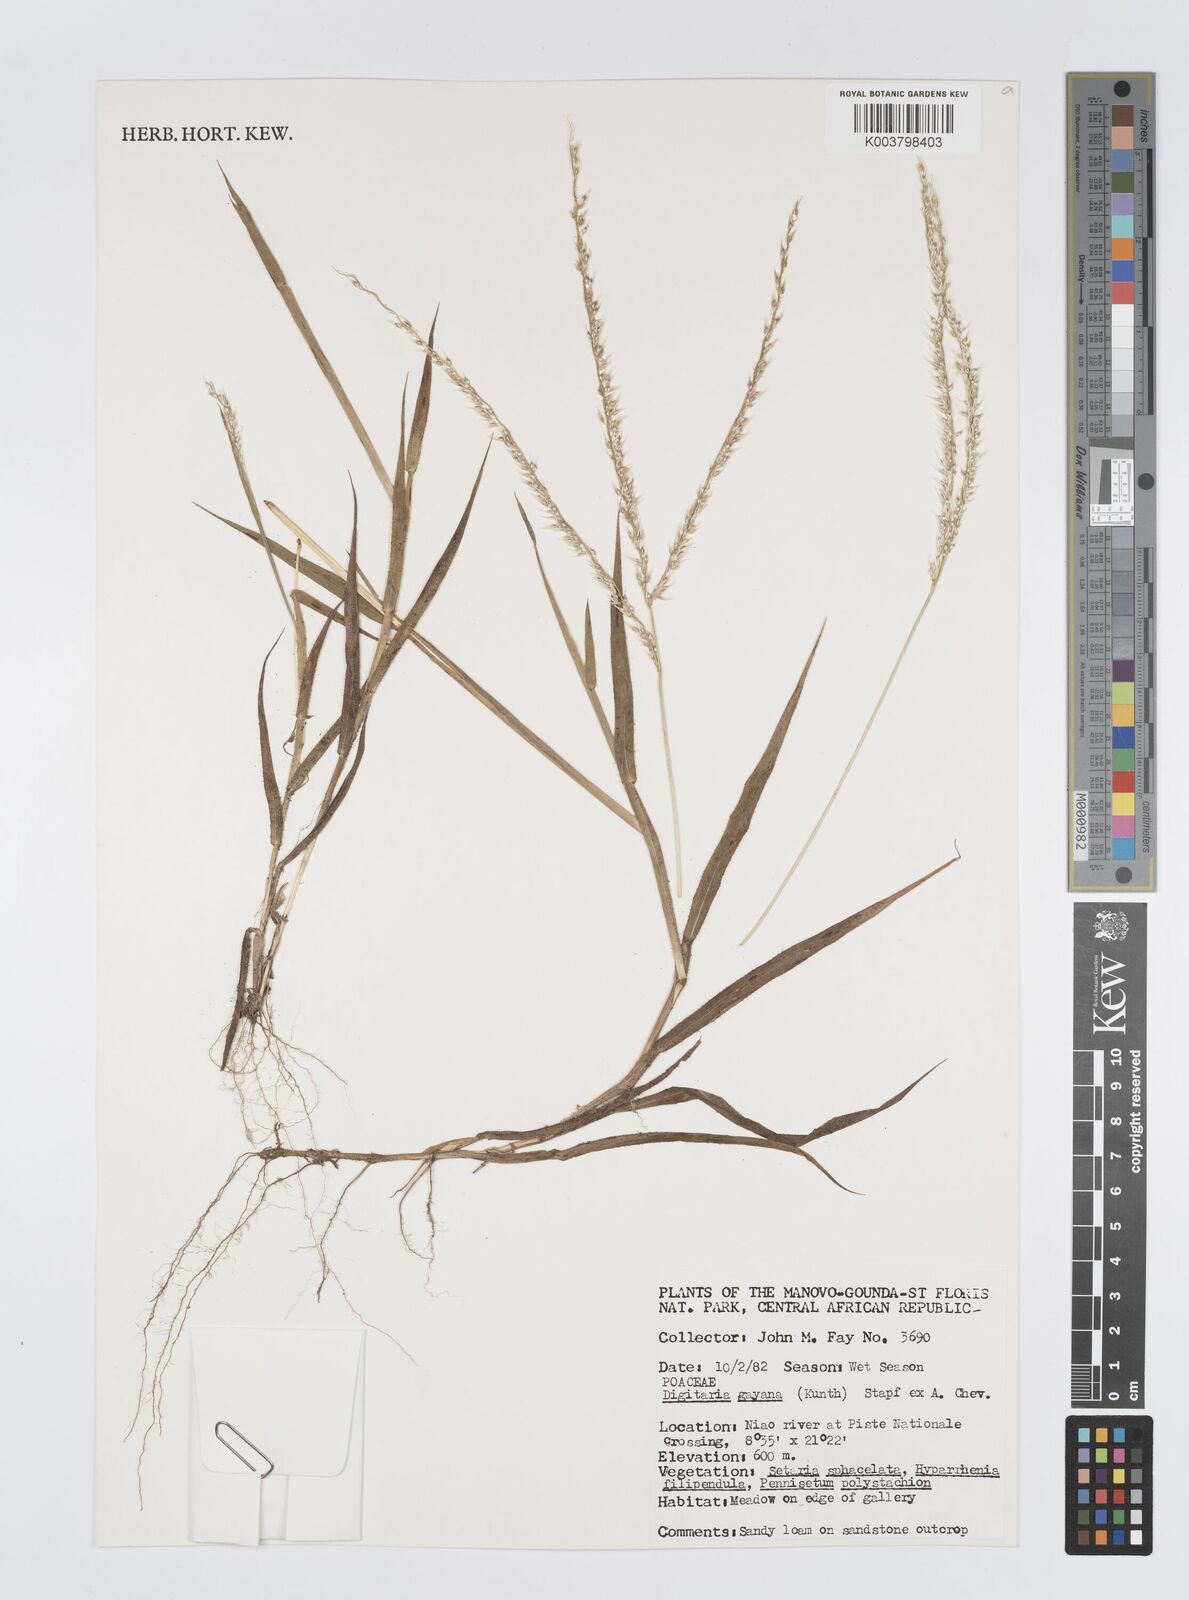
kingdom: Plantae
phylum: Tracheophyta
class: Liliopsida
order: Poales
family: Poaceae
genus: Digitaria
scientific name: Digitaria gayana
